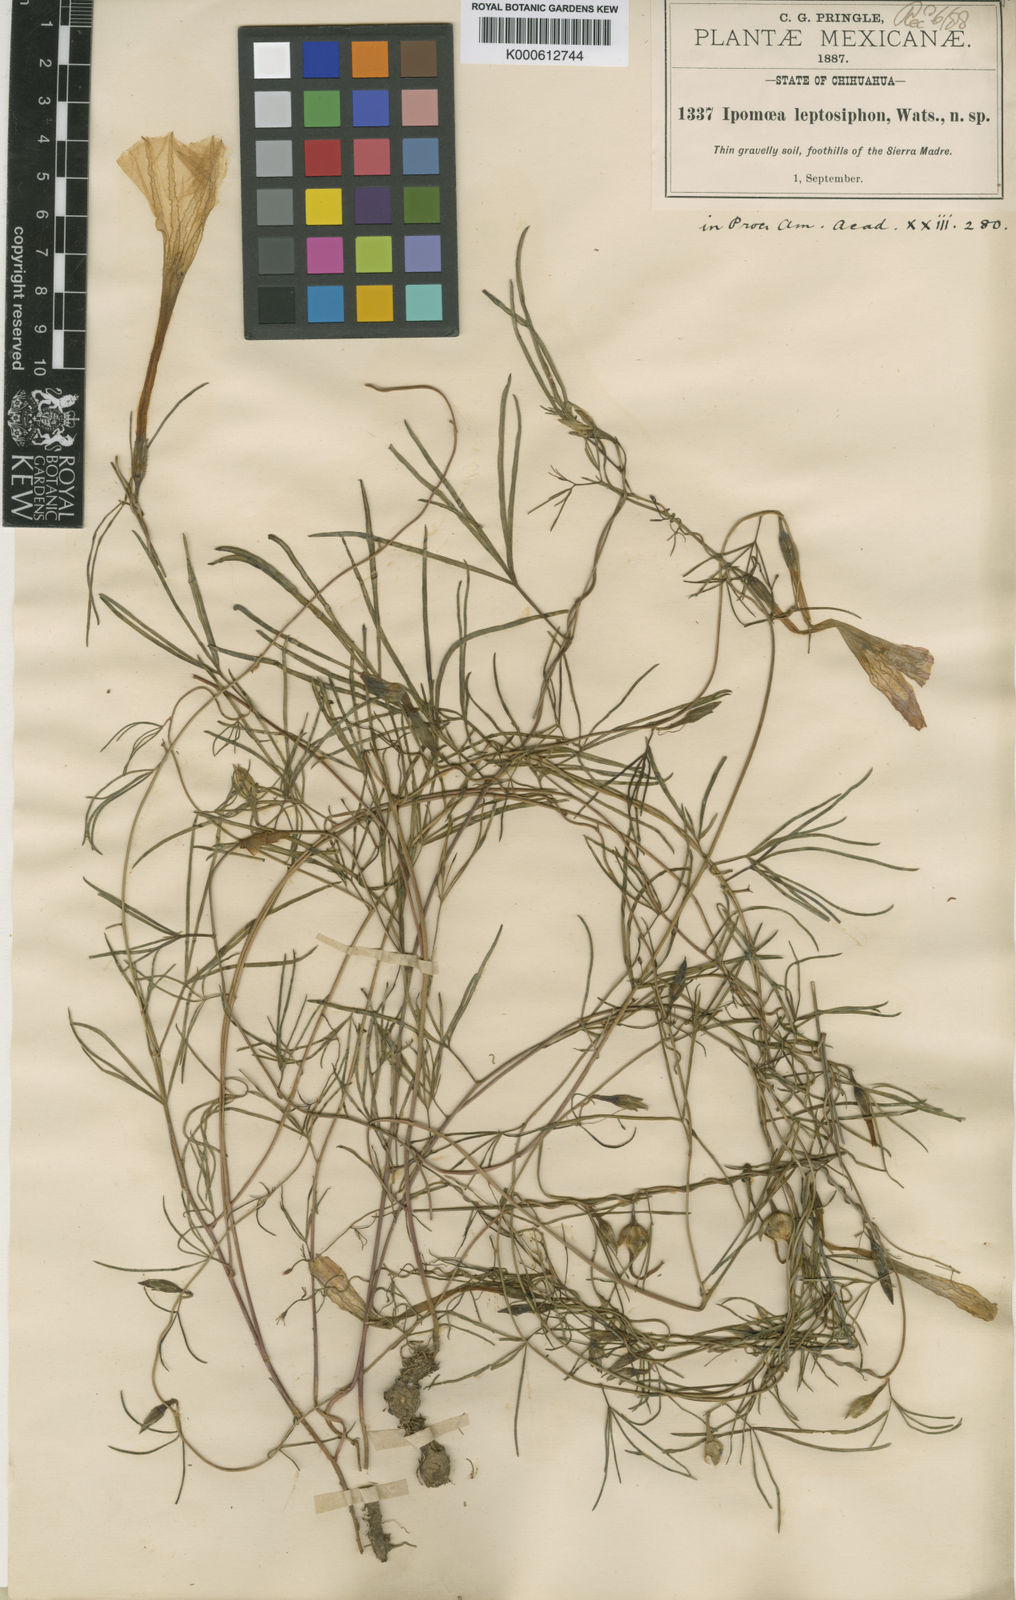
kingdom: Plantae
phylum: Tracheophyta
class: Magnoliopsida
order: Solanales
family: Convolvulaceae
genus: Ipomoea
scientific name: Ipomoea tenuiloba
